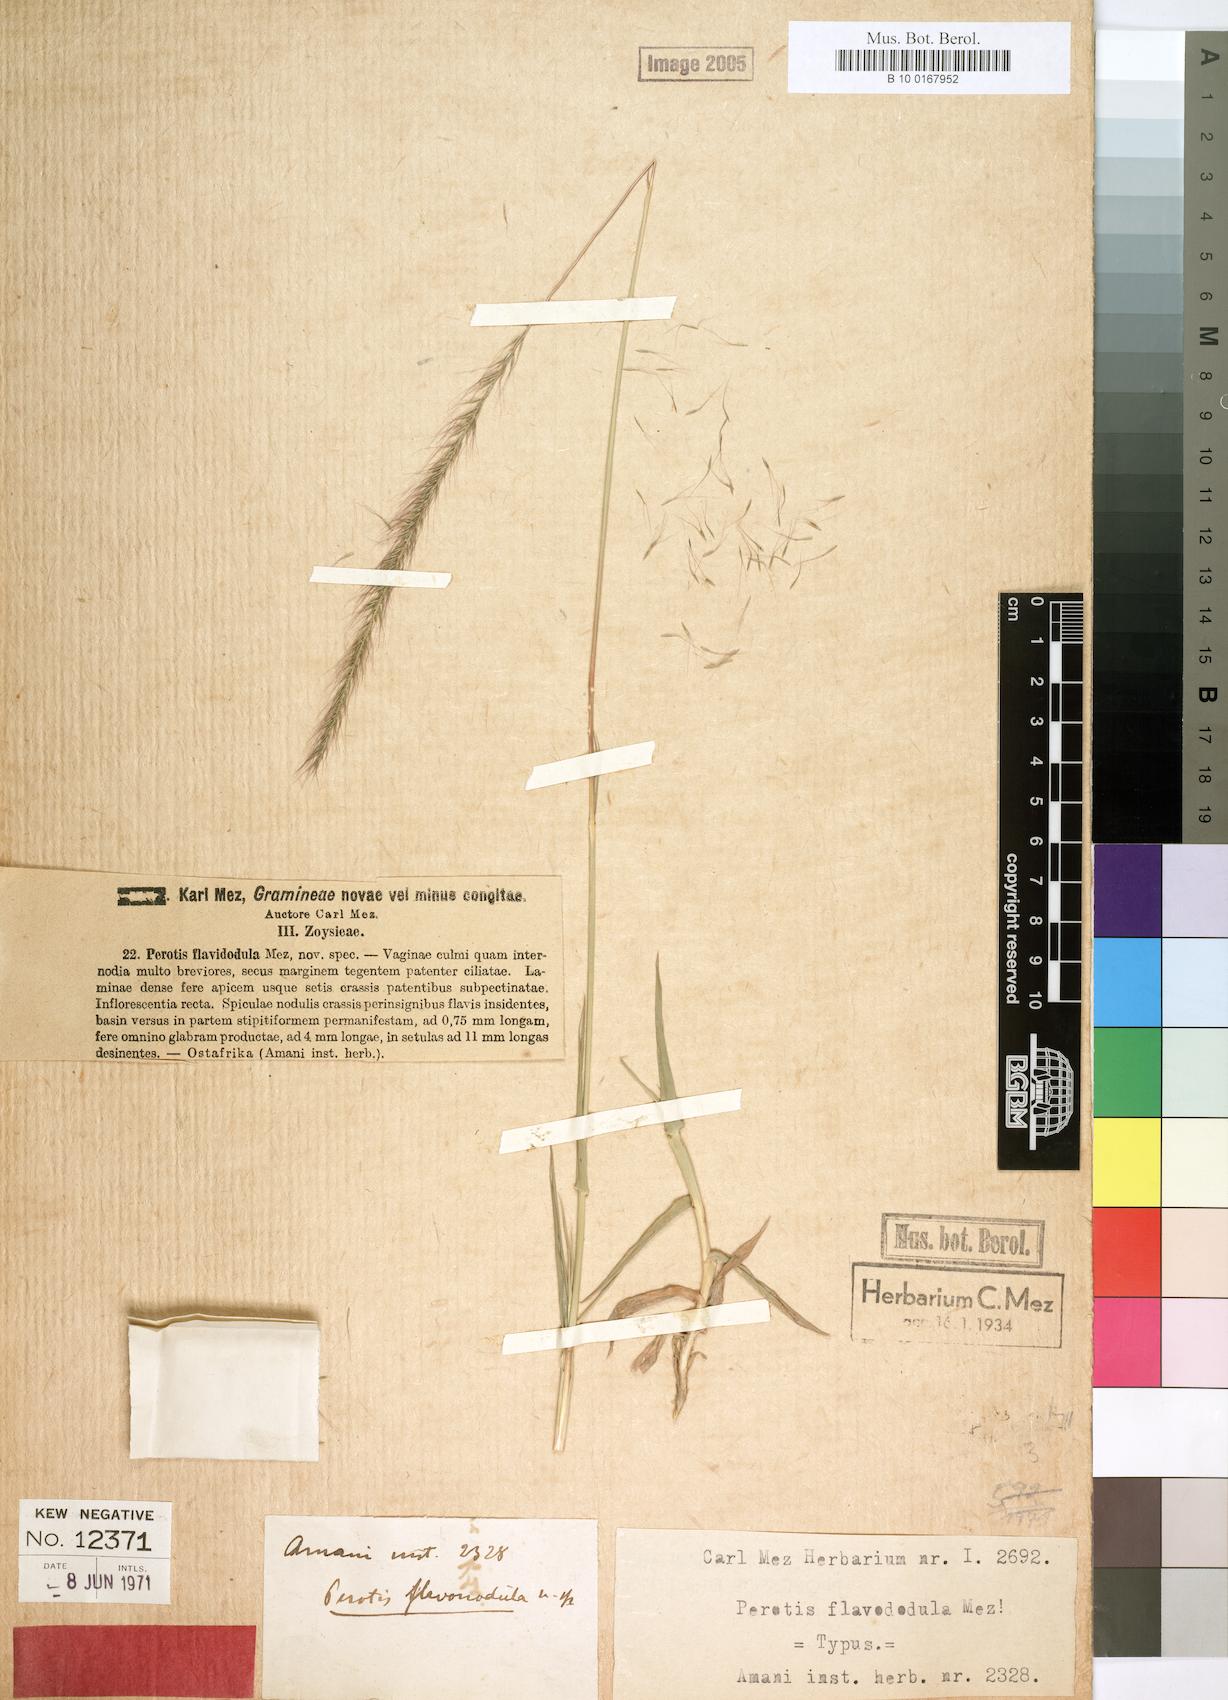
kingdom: Plantae
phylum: Tracheophyta
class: Liliopsida
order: Poales
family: Poaceae
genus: Perotis
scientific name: Perotis flavinodula
